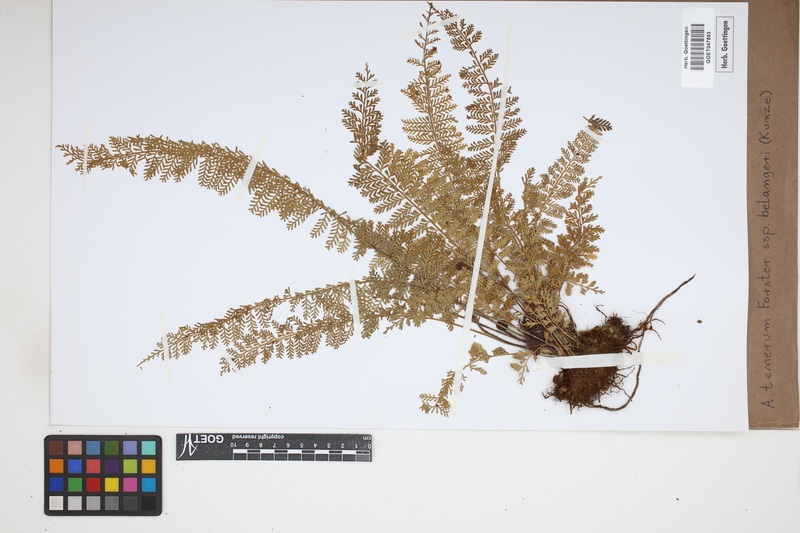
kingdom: Plantae
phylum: Tracheophyta
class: Polypodiopsida
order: Polypodiales
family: Aspleniaceae
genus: Asplenium
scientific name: Asplenium tenerum
